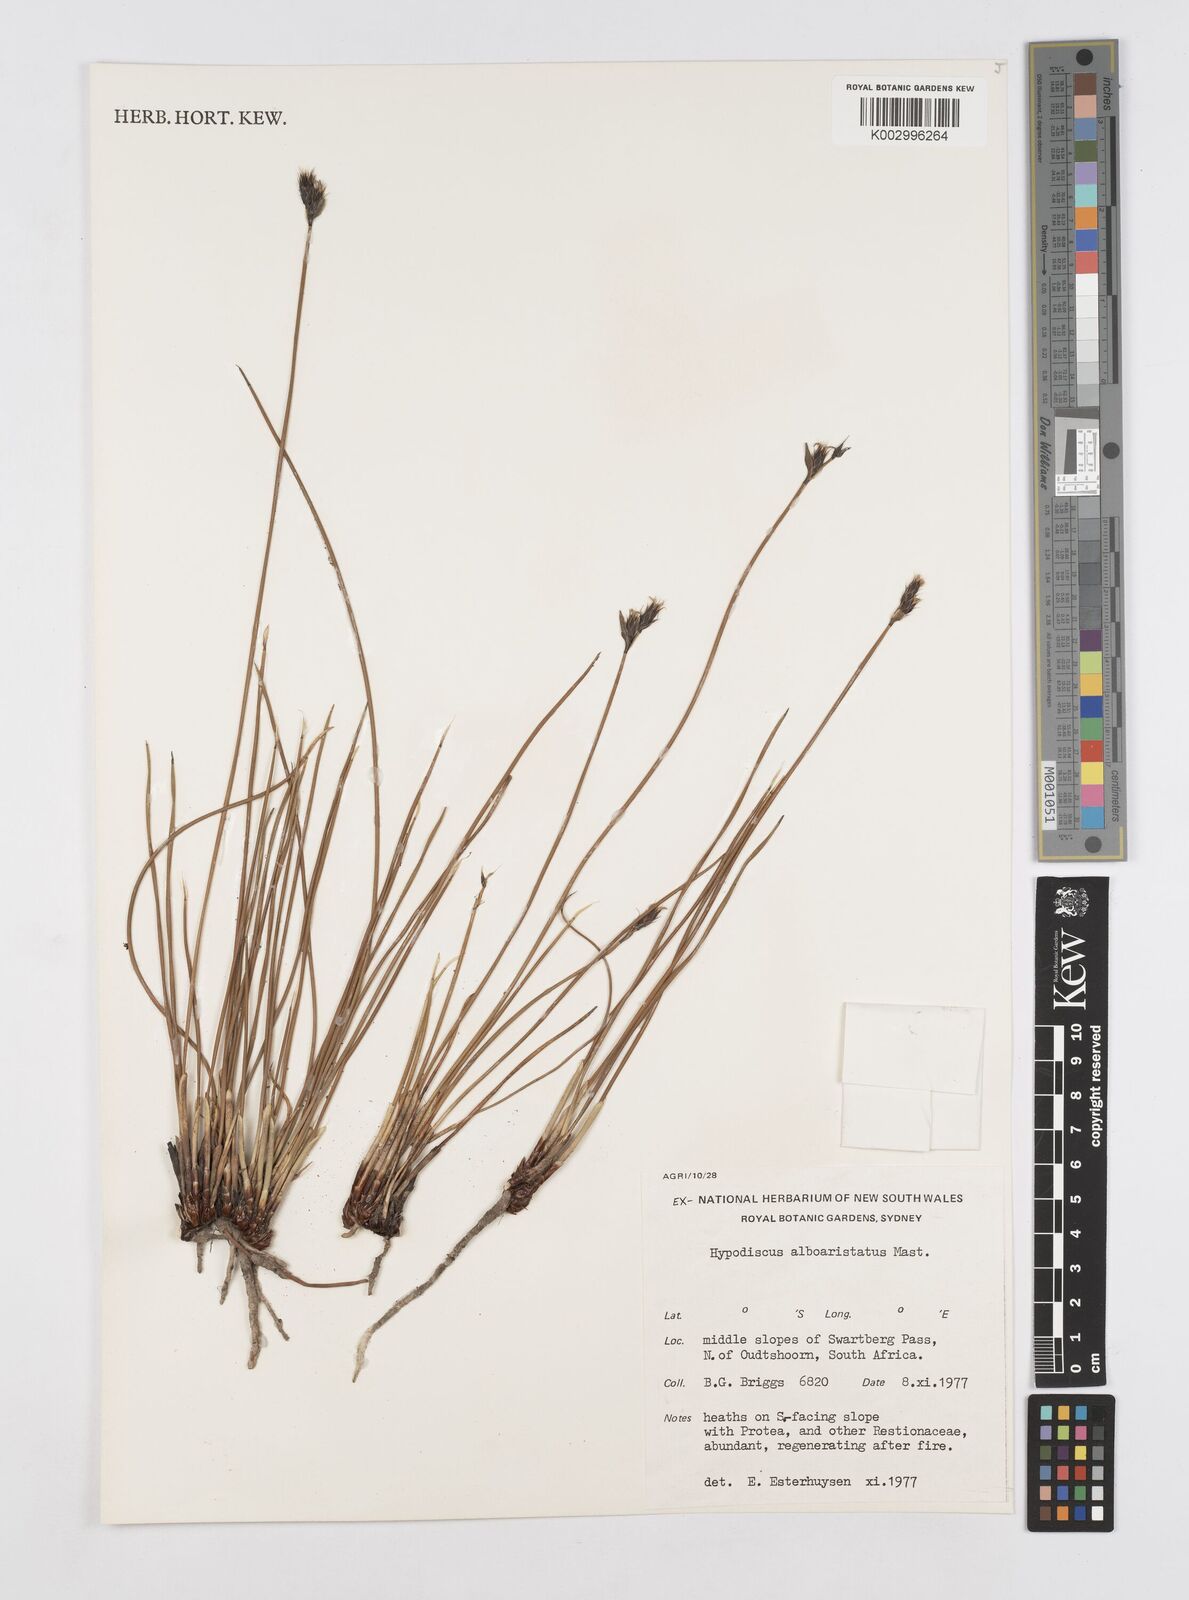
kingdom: Plantae
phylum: Tracheophyta
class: Liliopsida
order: Poales
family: Restionaceae
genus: Hypodiscus
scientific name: Hypodiscus alboaristatus
